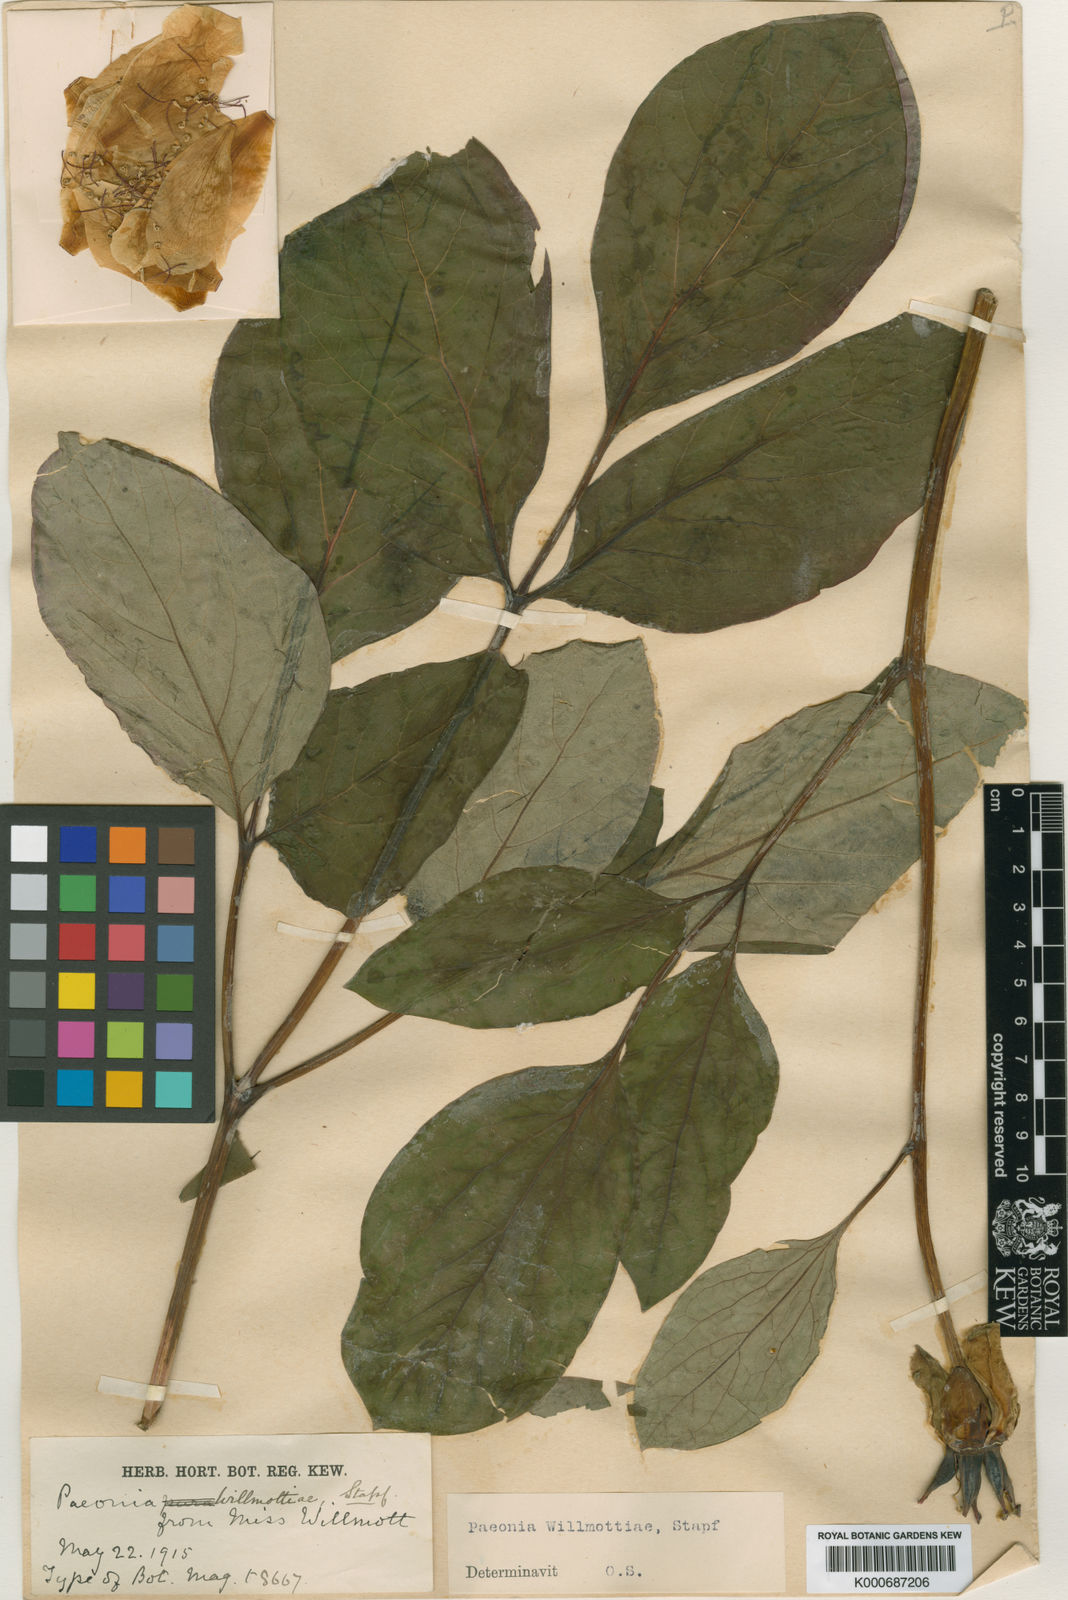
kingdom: Plantae
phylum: Tracheophyta
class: Magnoliopsida
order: Saxifragales
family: Paeoniaceae
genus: Paeonia
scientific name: Paeonia obovata
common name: Chinese peony
